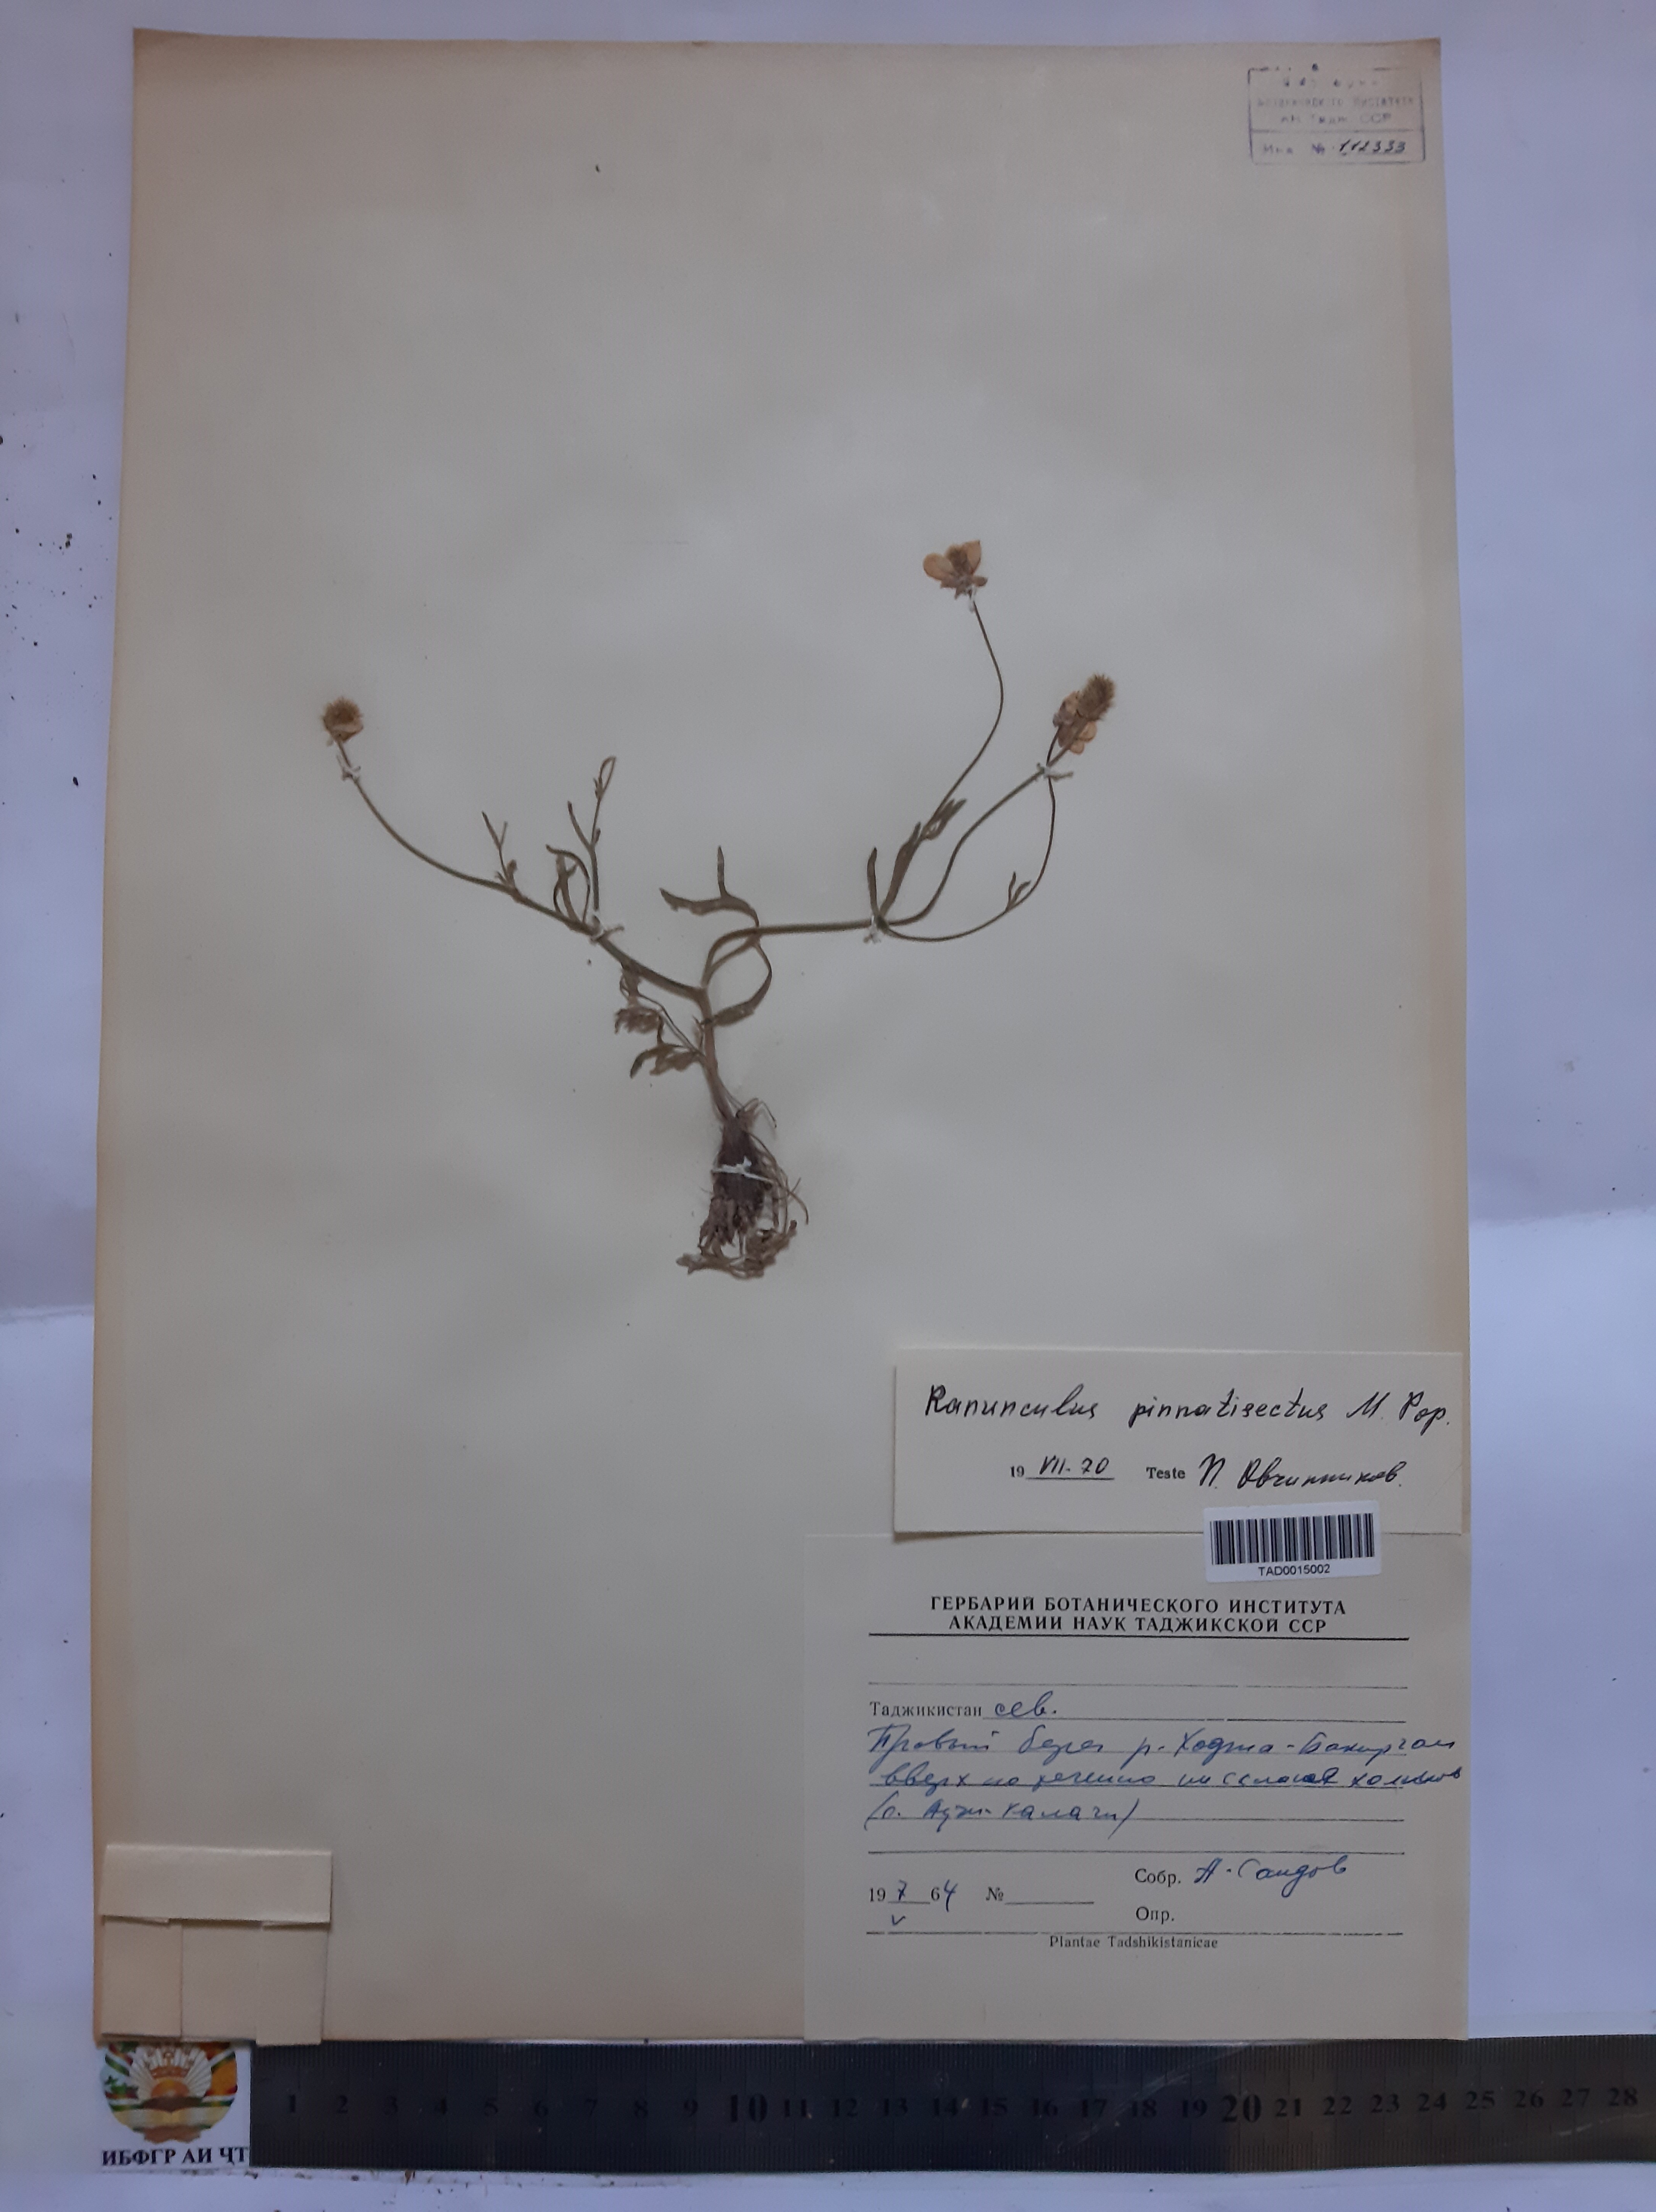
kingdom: Plantae
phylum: Tracheophyta
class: Magnoliopsida
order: Ranunculales
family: Ranunculaceae
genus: Ranunculus
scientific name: Ranunculus pinnatisectus
